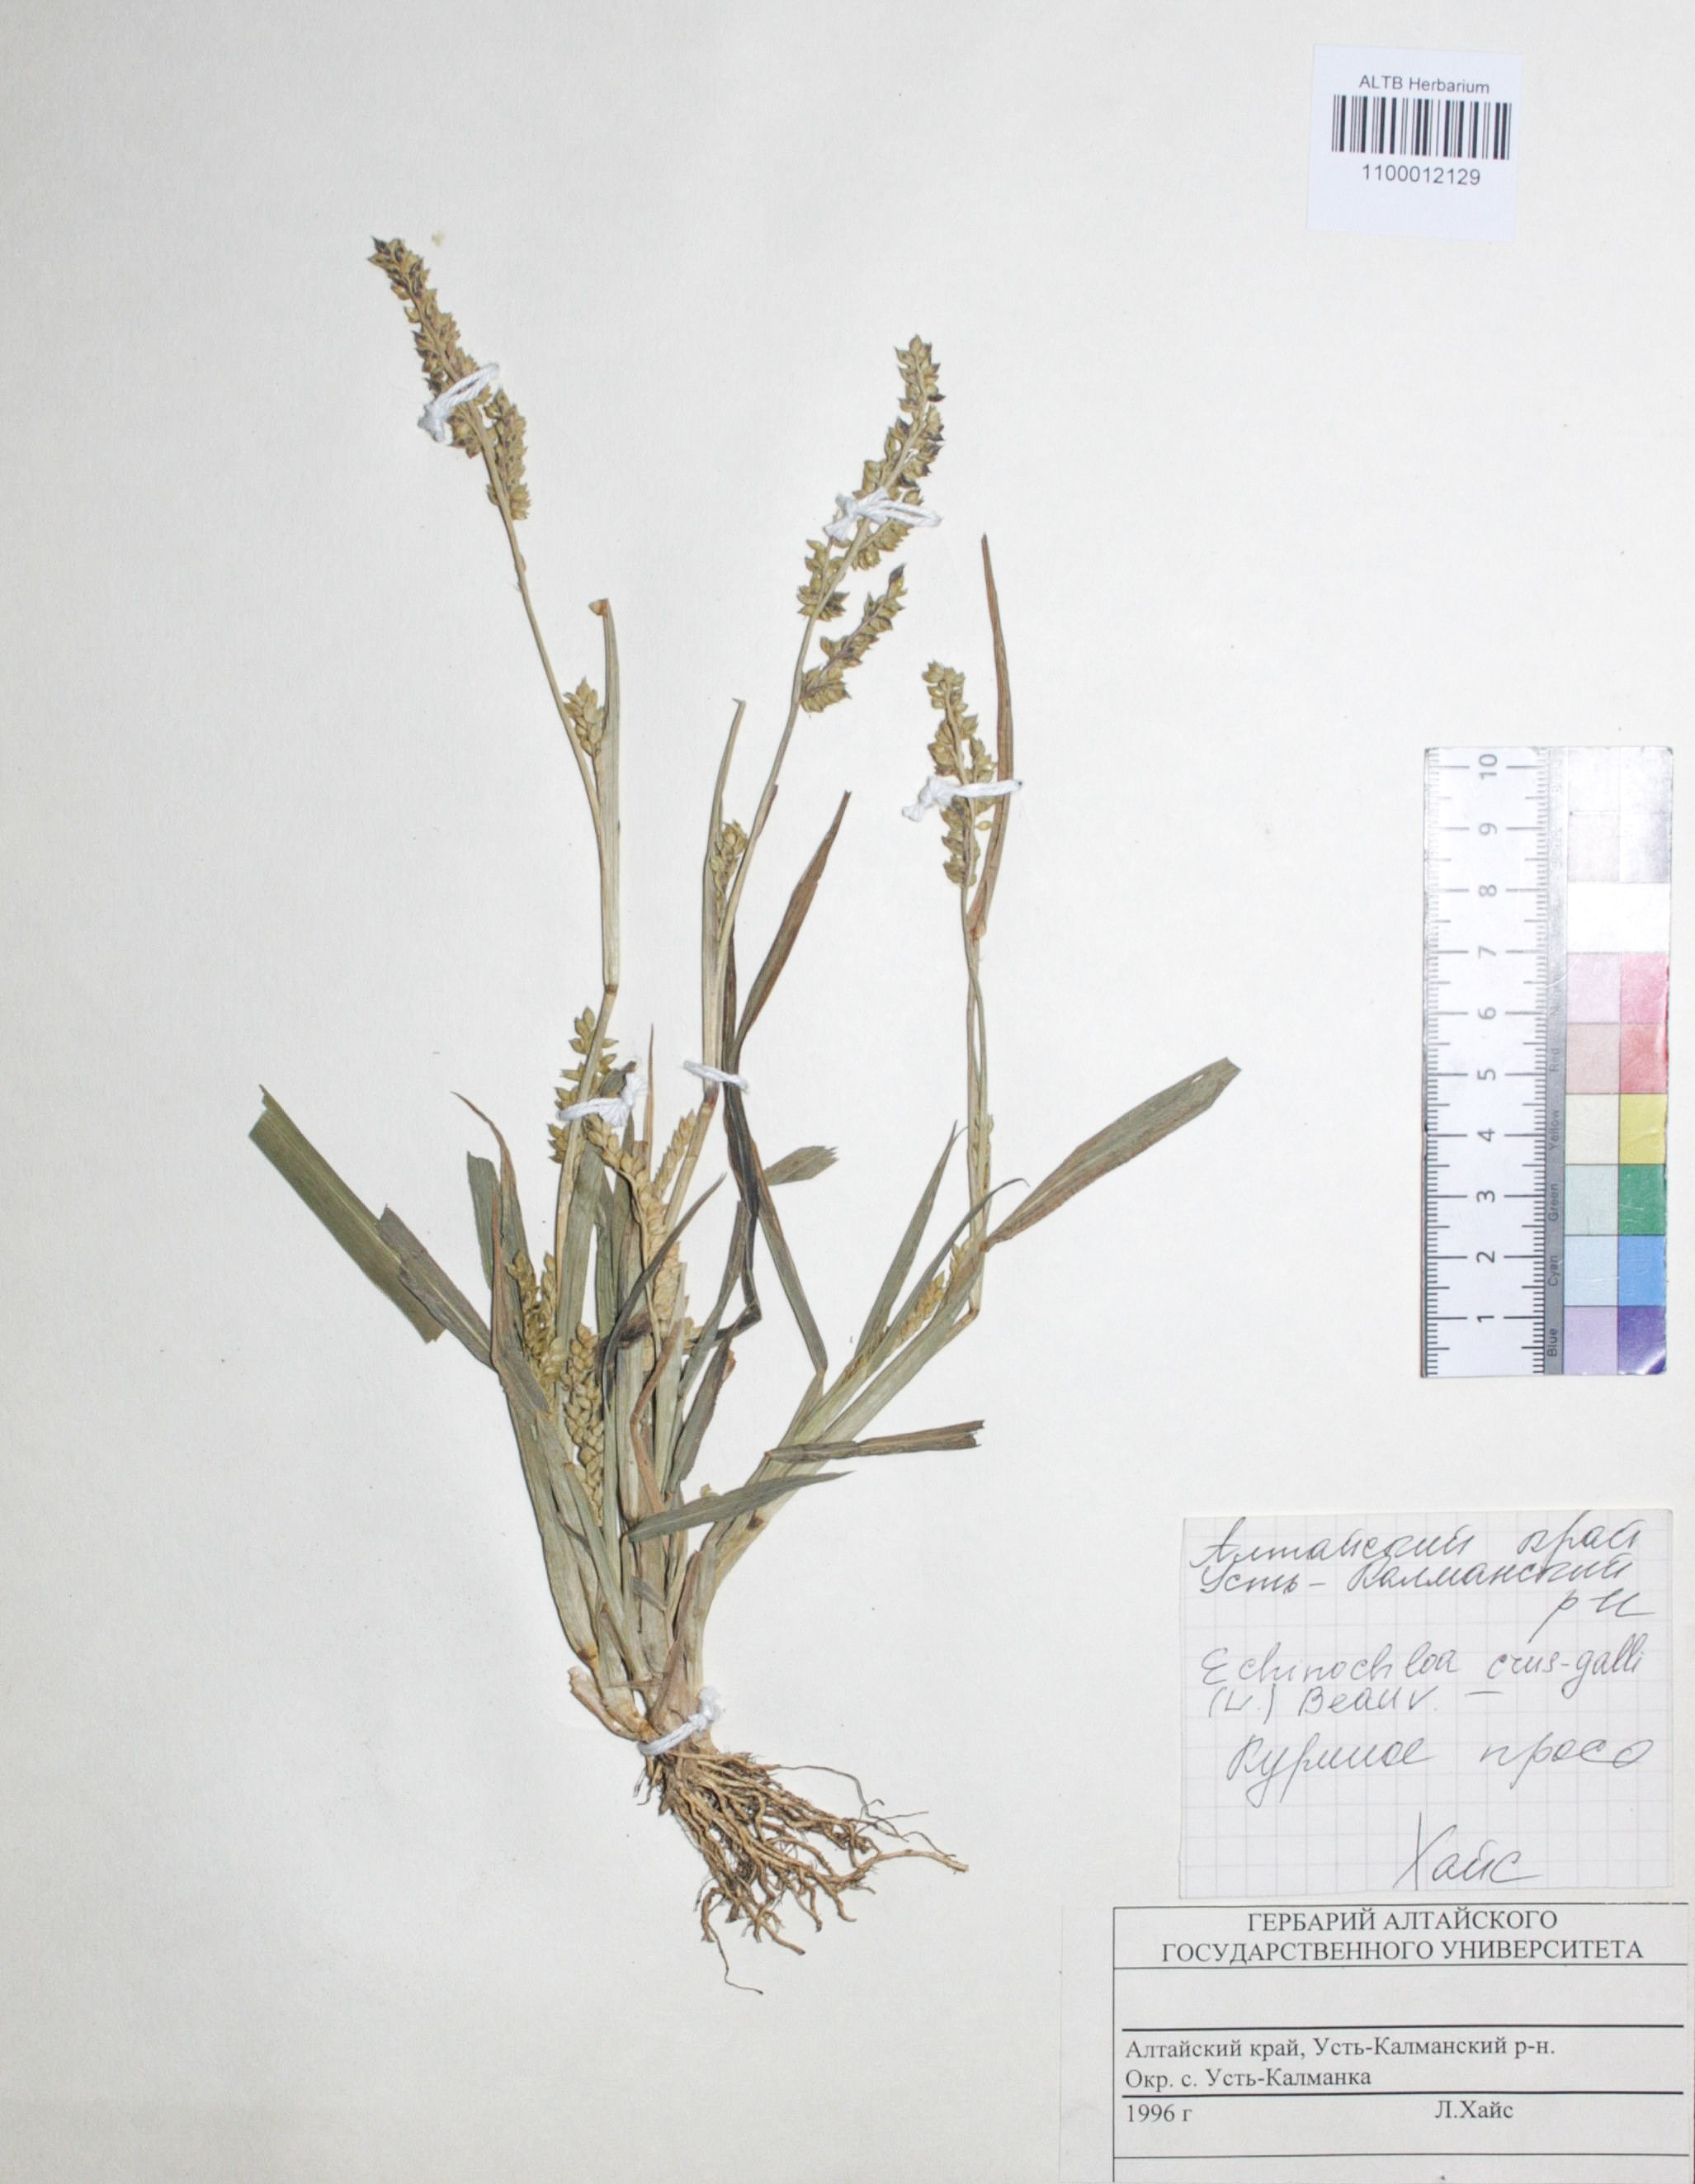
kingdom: Plantae
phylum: Tracheophyta
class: Liliopsida
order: Poales
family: Poaceae
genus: Echinochloa
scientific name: Echinochloa crus-galli
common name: Cockspur
